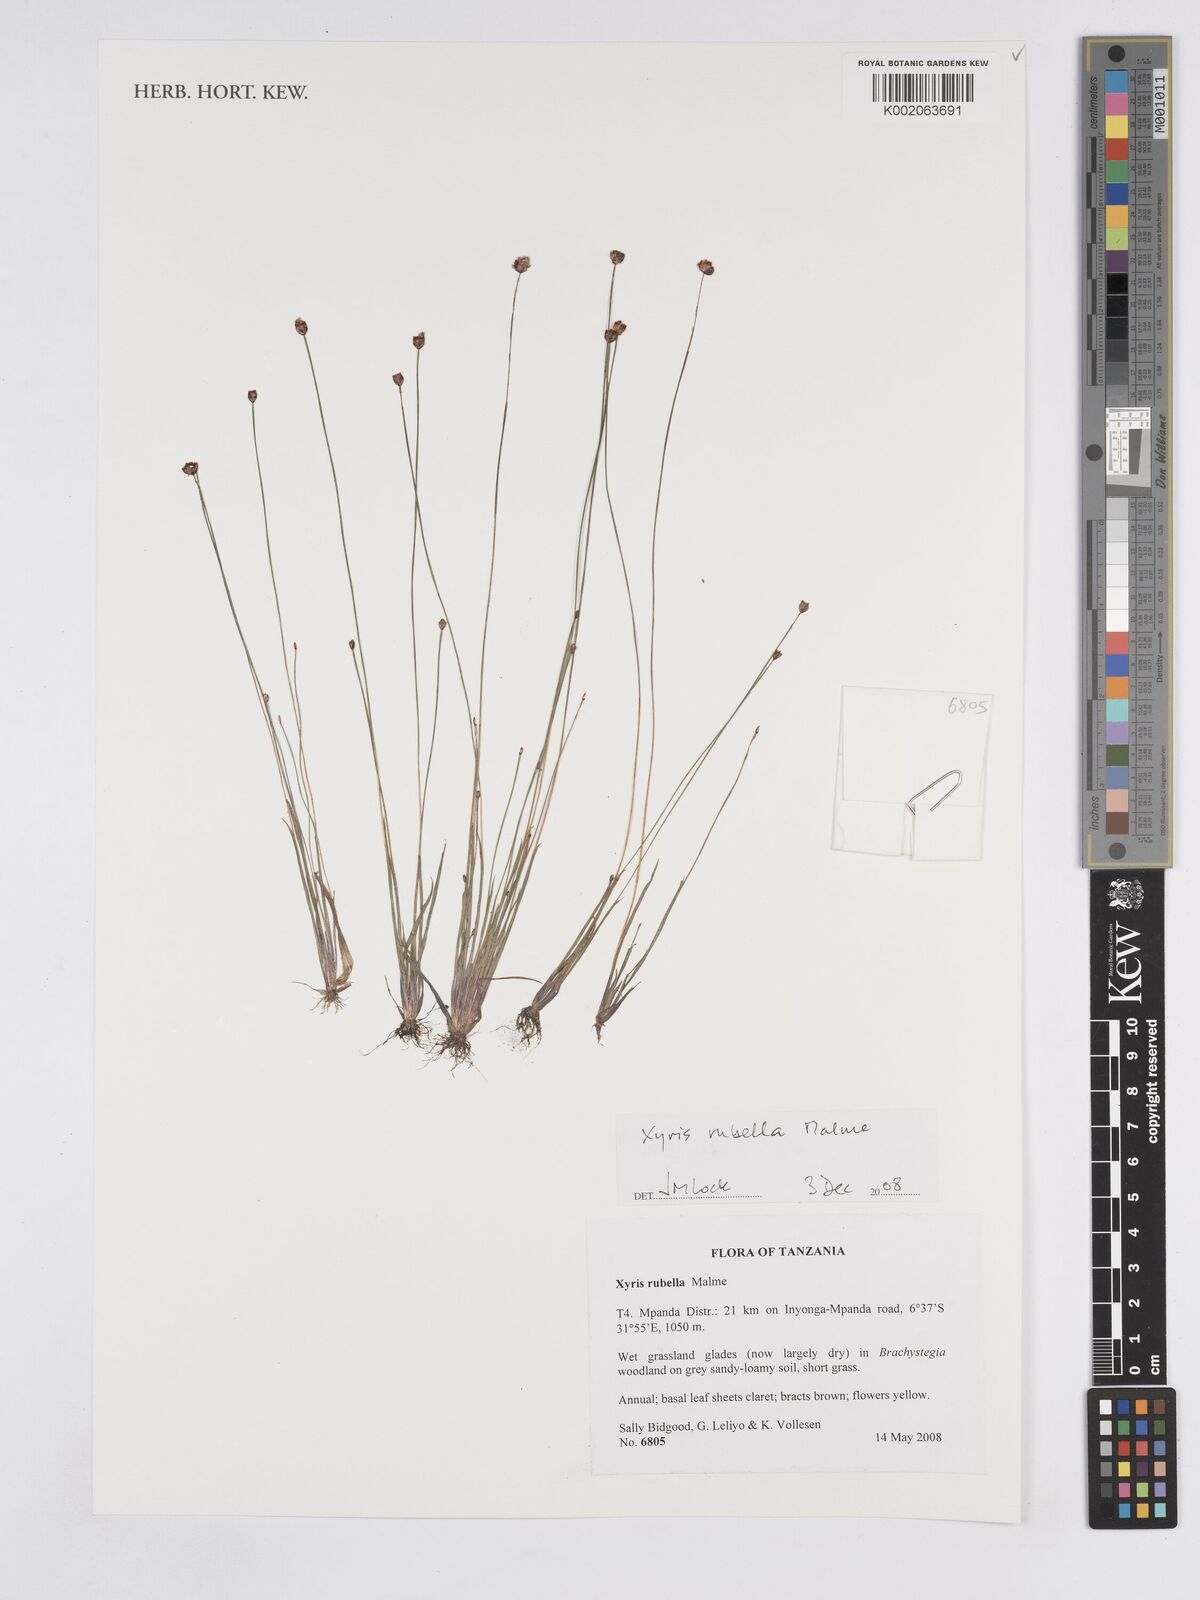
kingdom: Plantae
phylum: Tracheophyta
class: Liliopsida
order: Poales
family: Xyridaceae
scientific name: Xyridaceae
